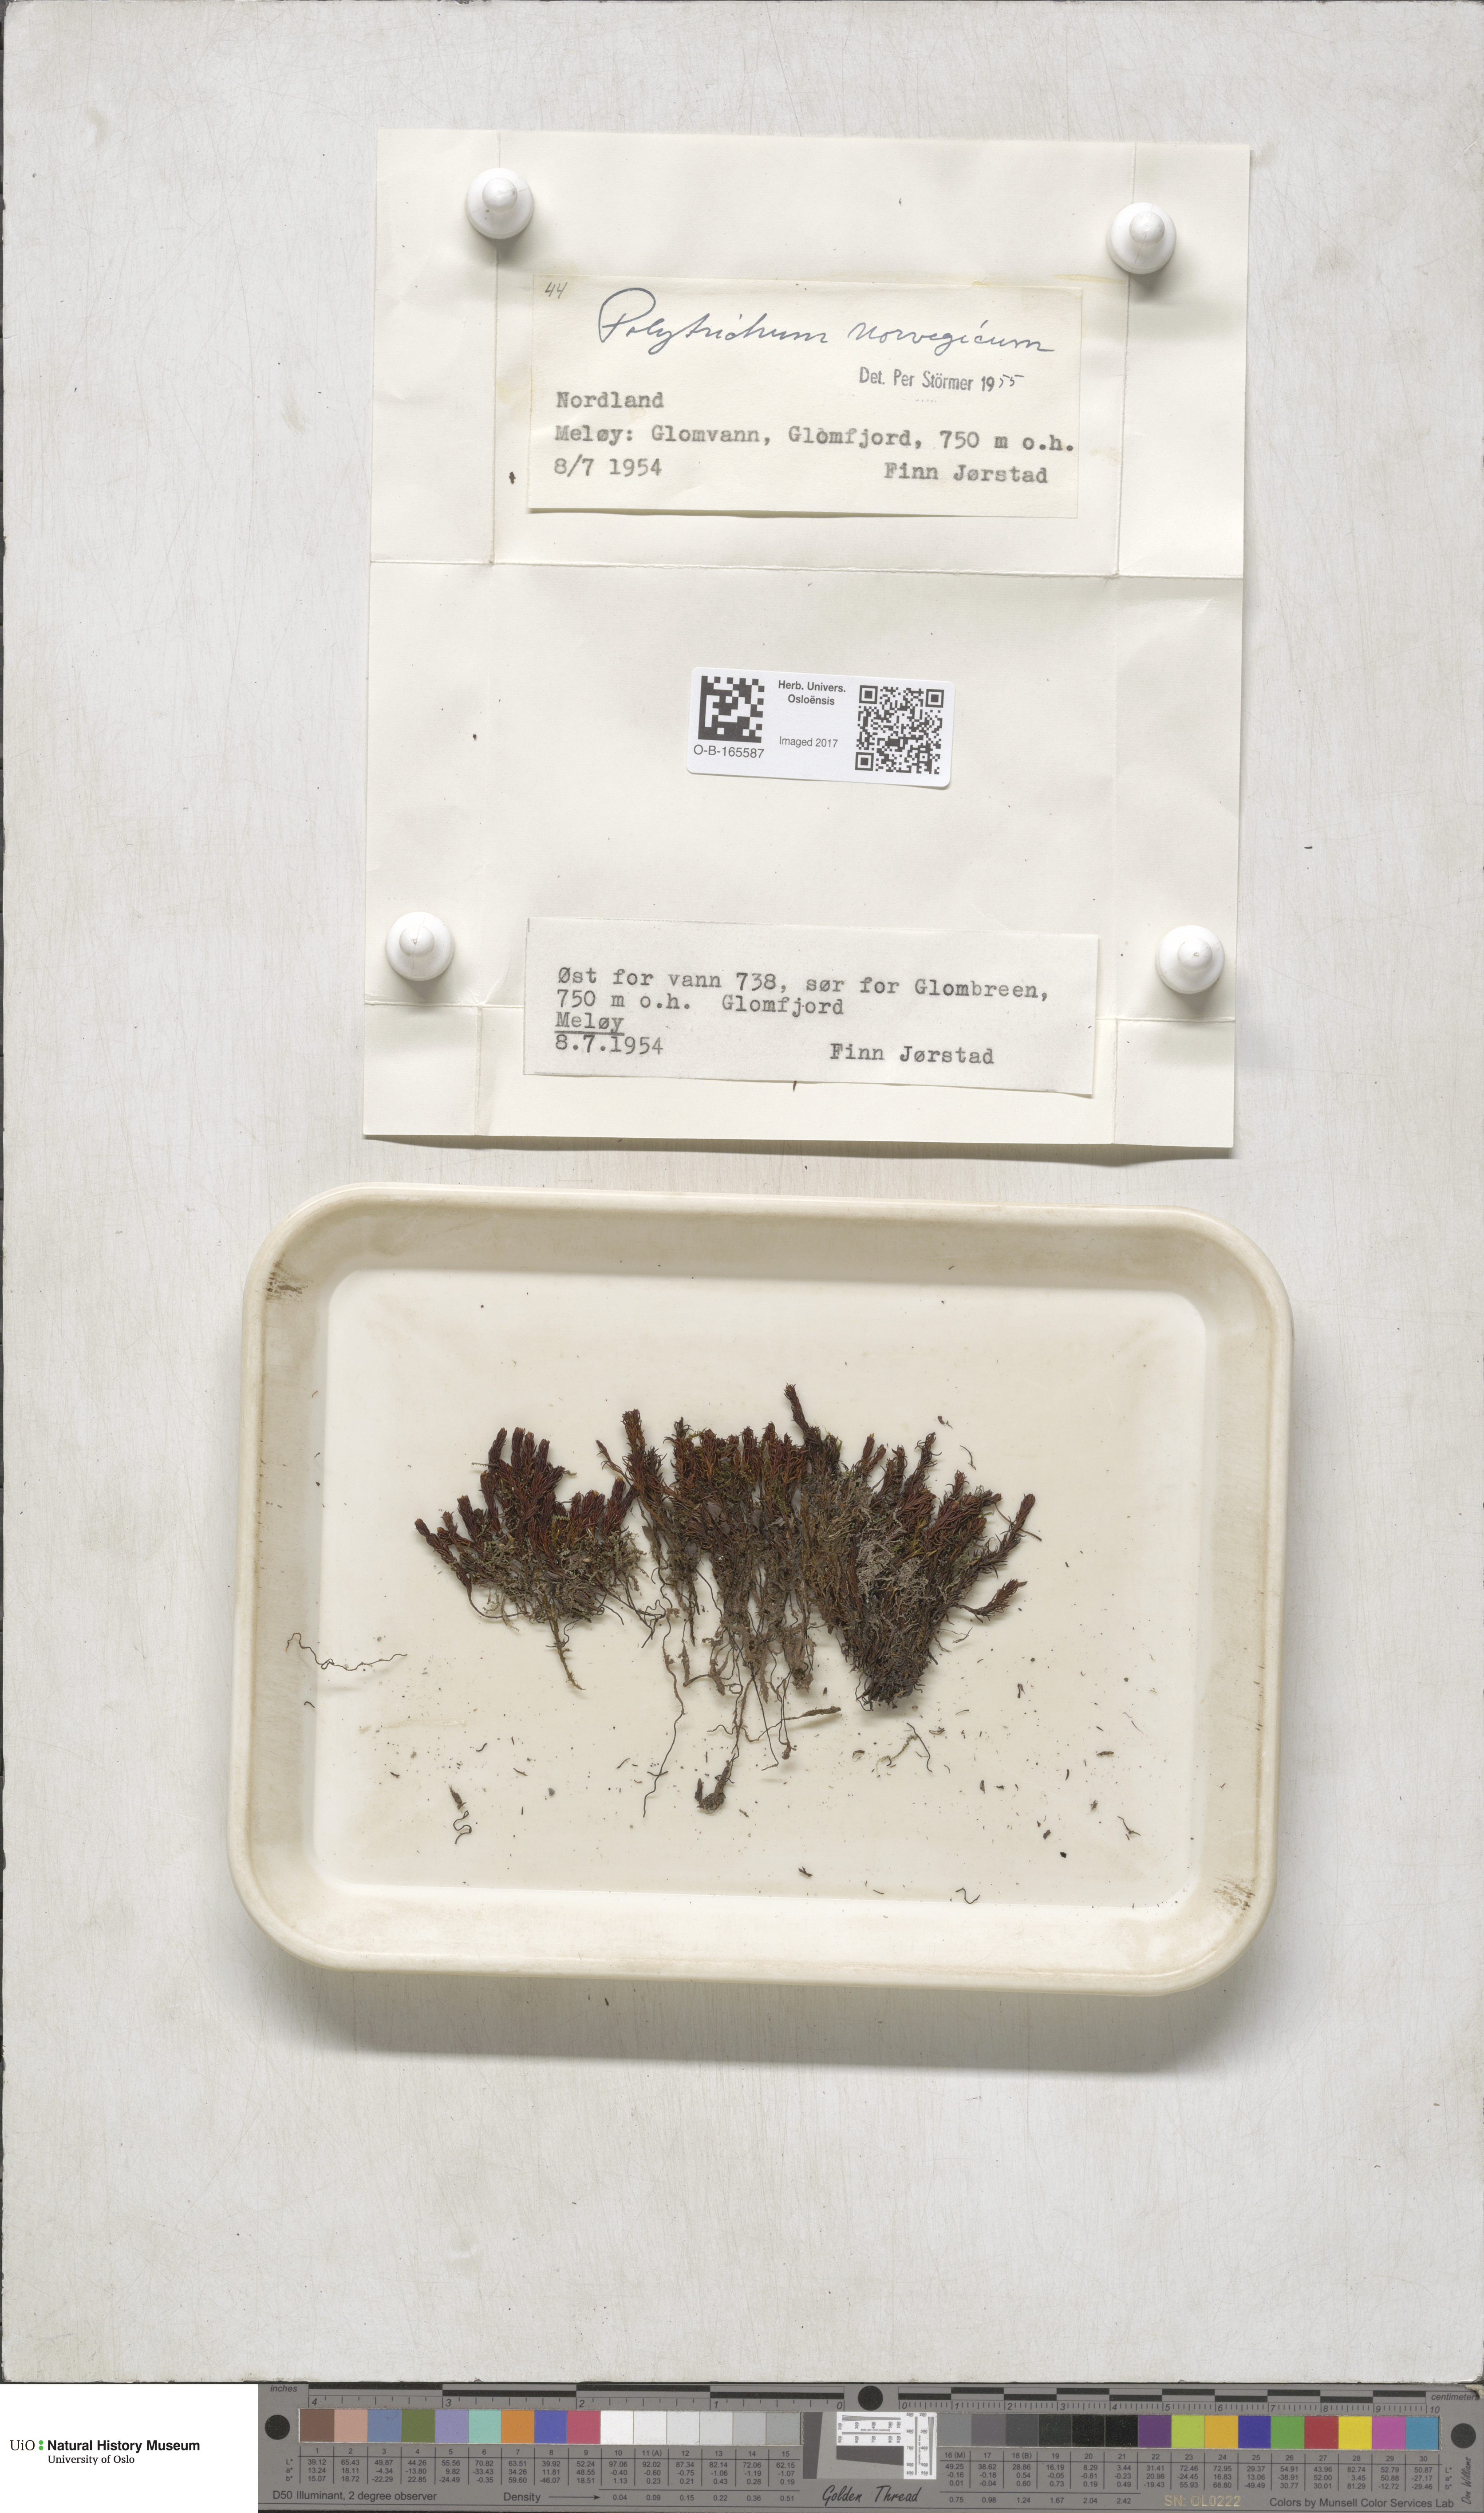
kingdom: Plantae
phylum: Bryophyta
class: Polytrichopsida
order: Polytrichales
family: Polytrichaceae
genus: Polytrichastrum
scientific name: Polytrichastrum sexangulare
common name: Northern haircap
